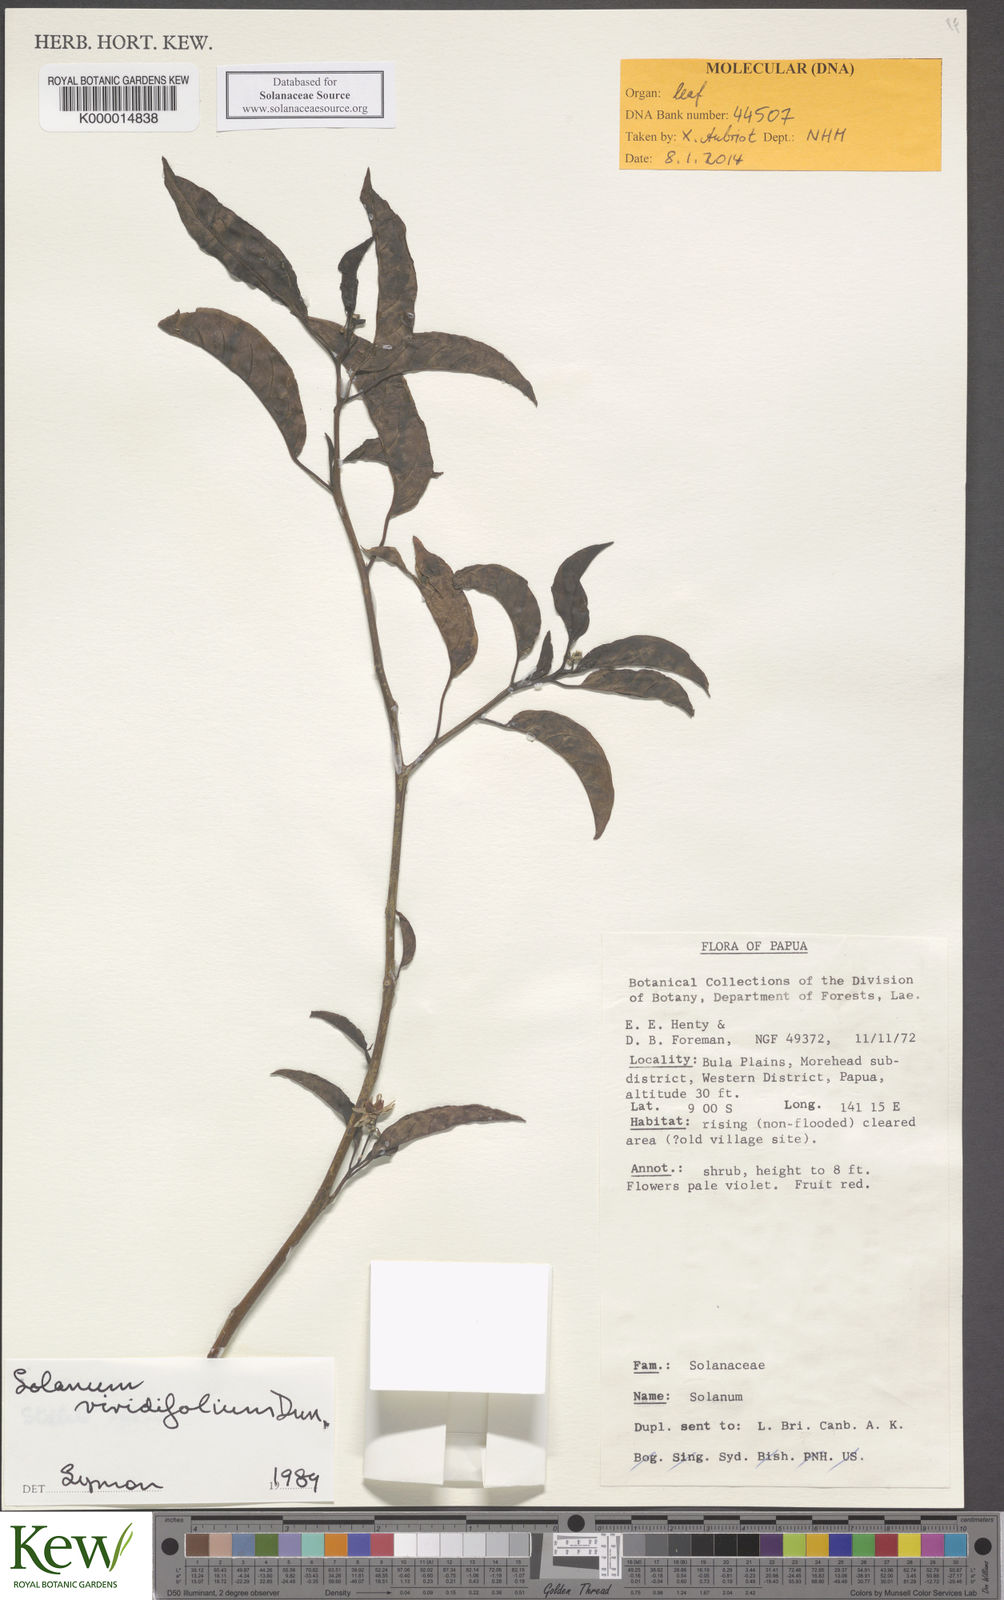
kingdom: Plantae
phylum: Tracheophyta
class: Magnoliopsida
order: Solanales
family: Solanaceae
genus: Solanum
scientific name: Solanum viridifolium
